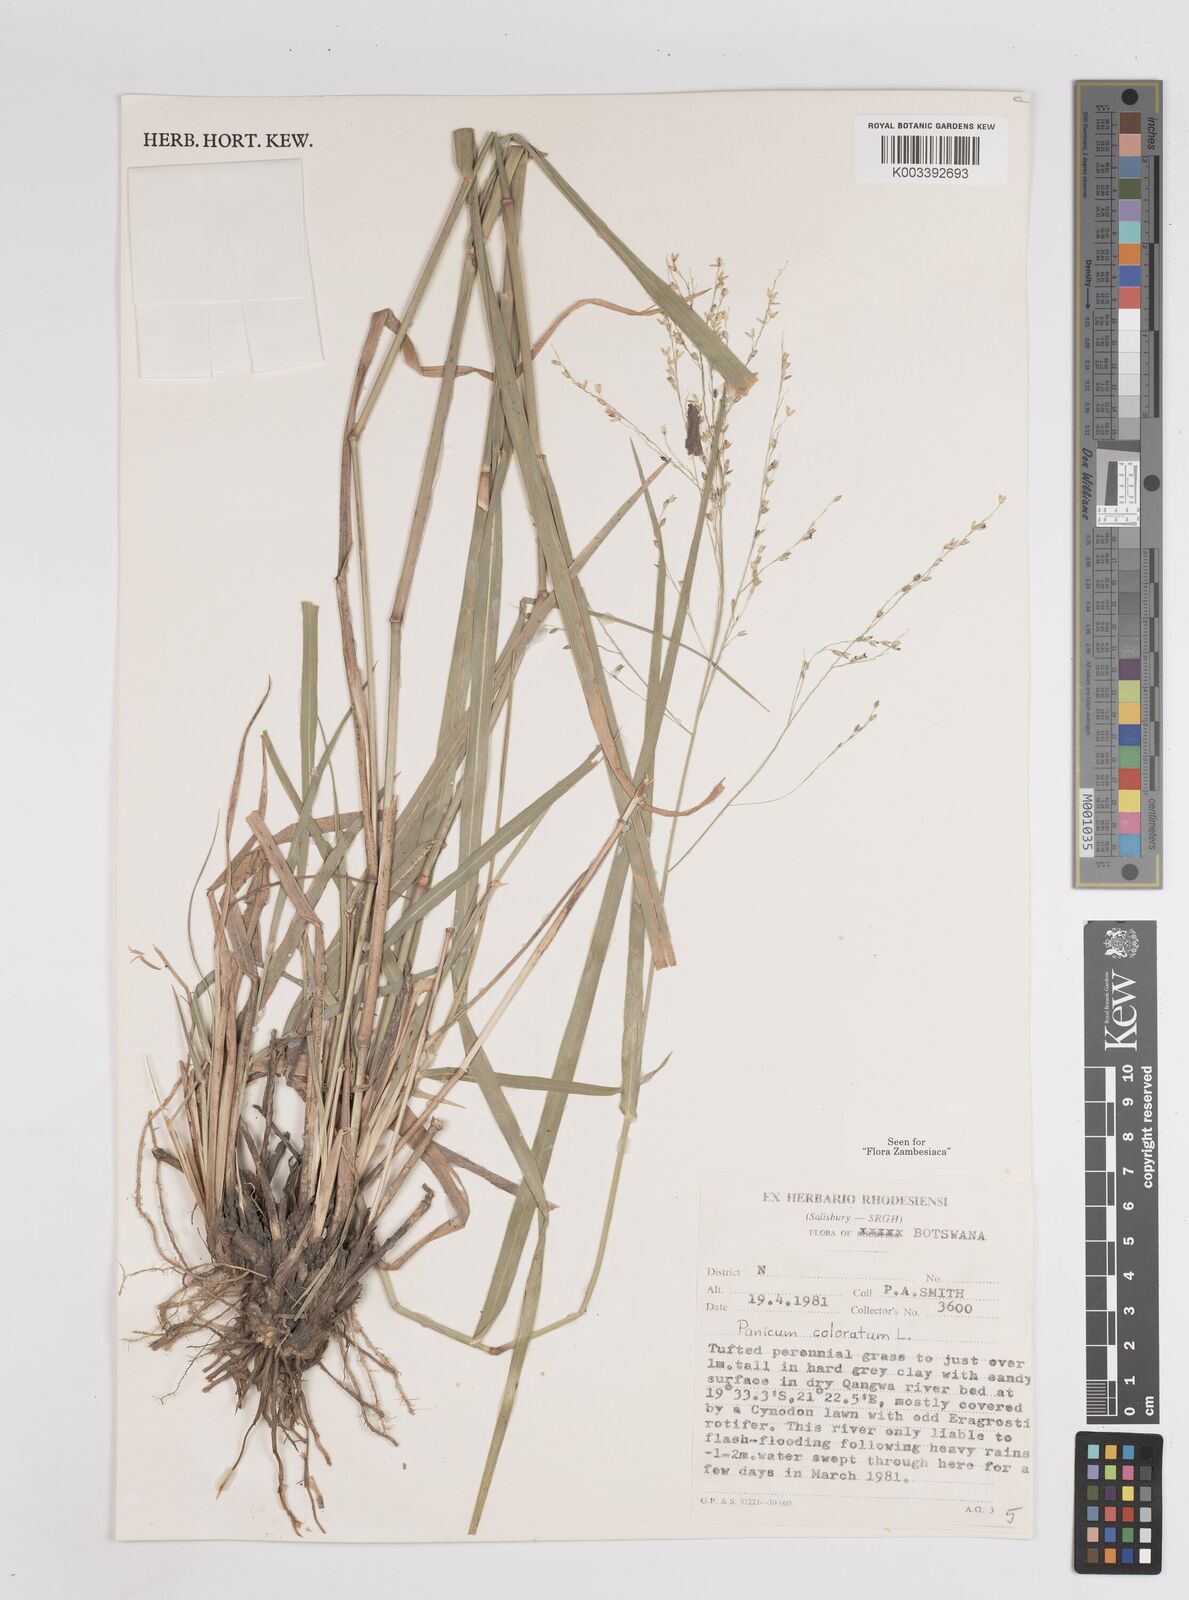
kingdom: Plantae
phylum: Tracheophyta
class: Liliopsida
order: Poales
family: Poaceae
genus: Panicum
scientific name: Panicum coloratum
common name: Kleingrass
